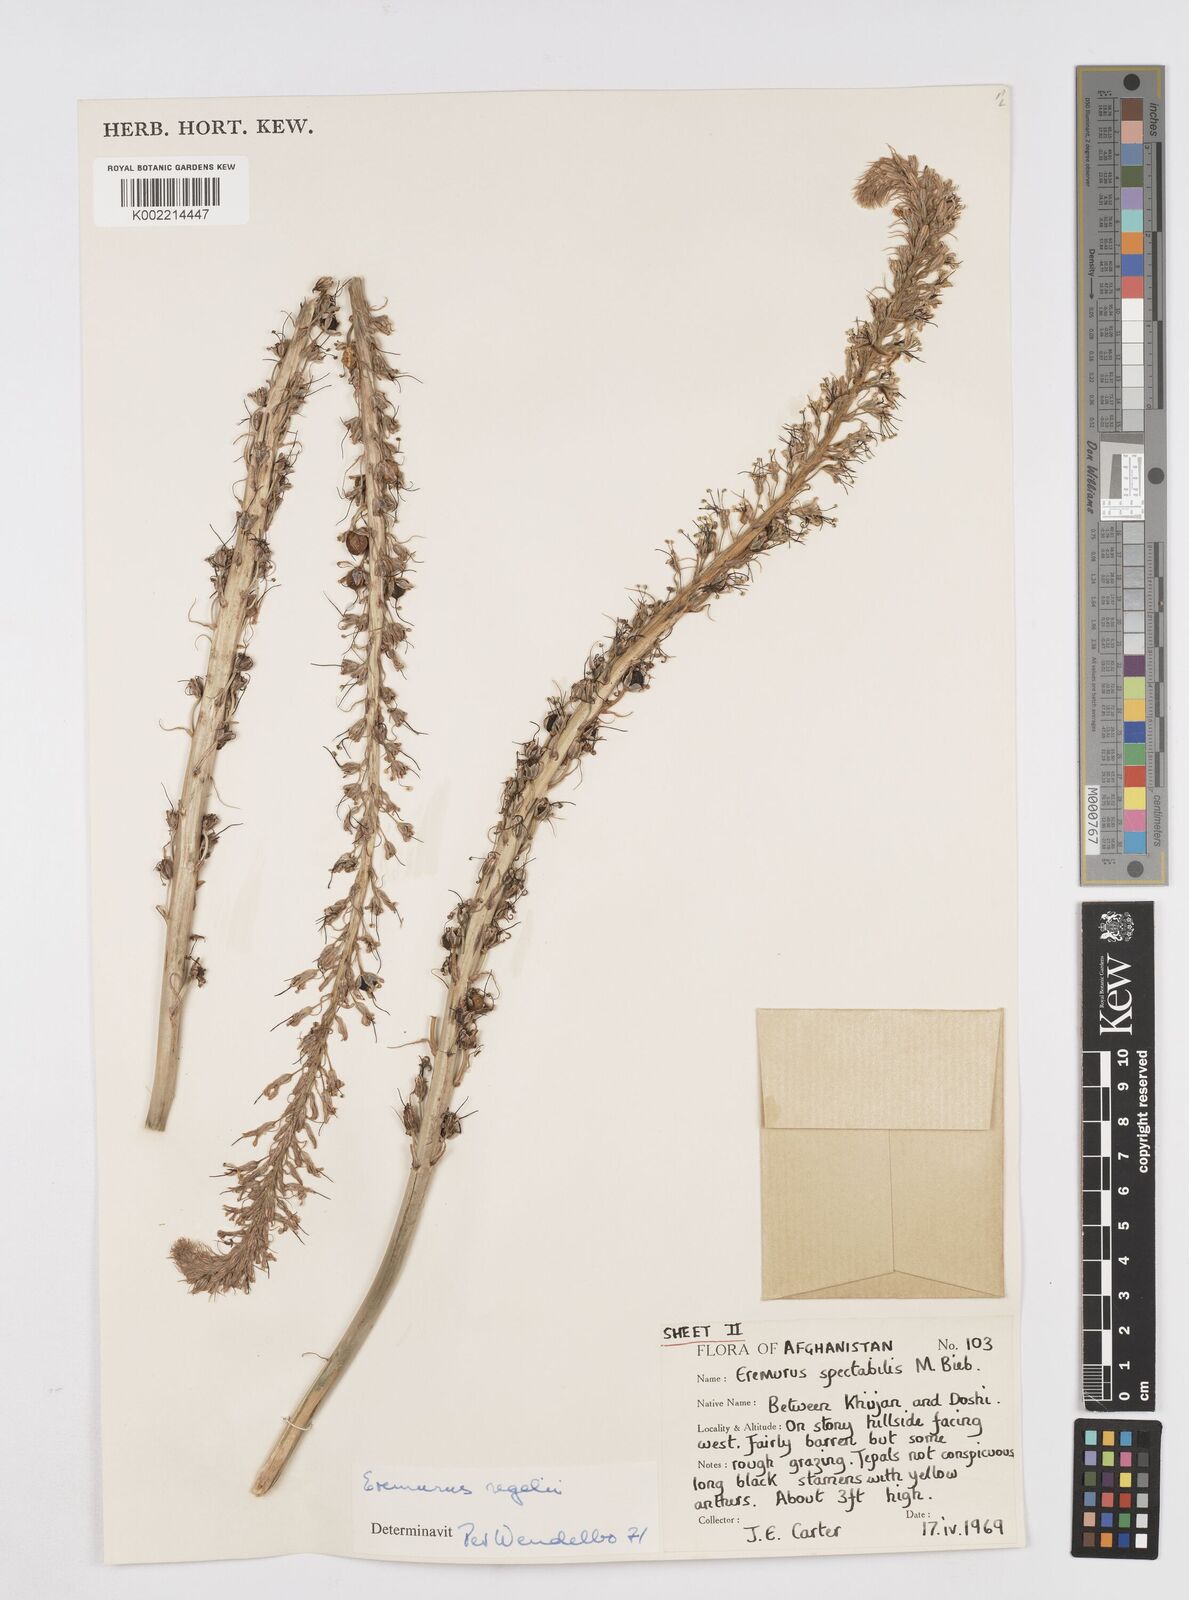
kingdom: Plantae
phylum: Tracheophyta
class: Liliopsida
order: Asparagales
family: Asphodelaceae
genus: Eremurus
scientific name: Eremurus regelii
